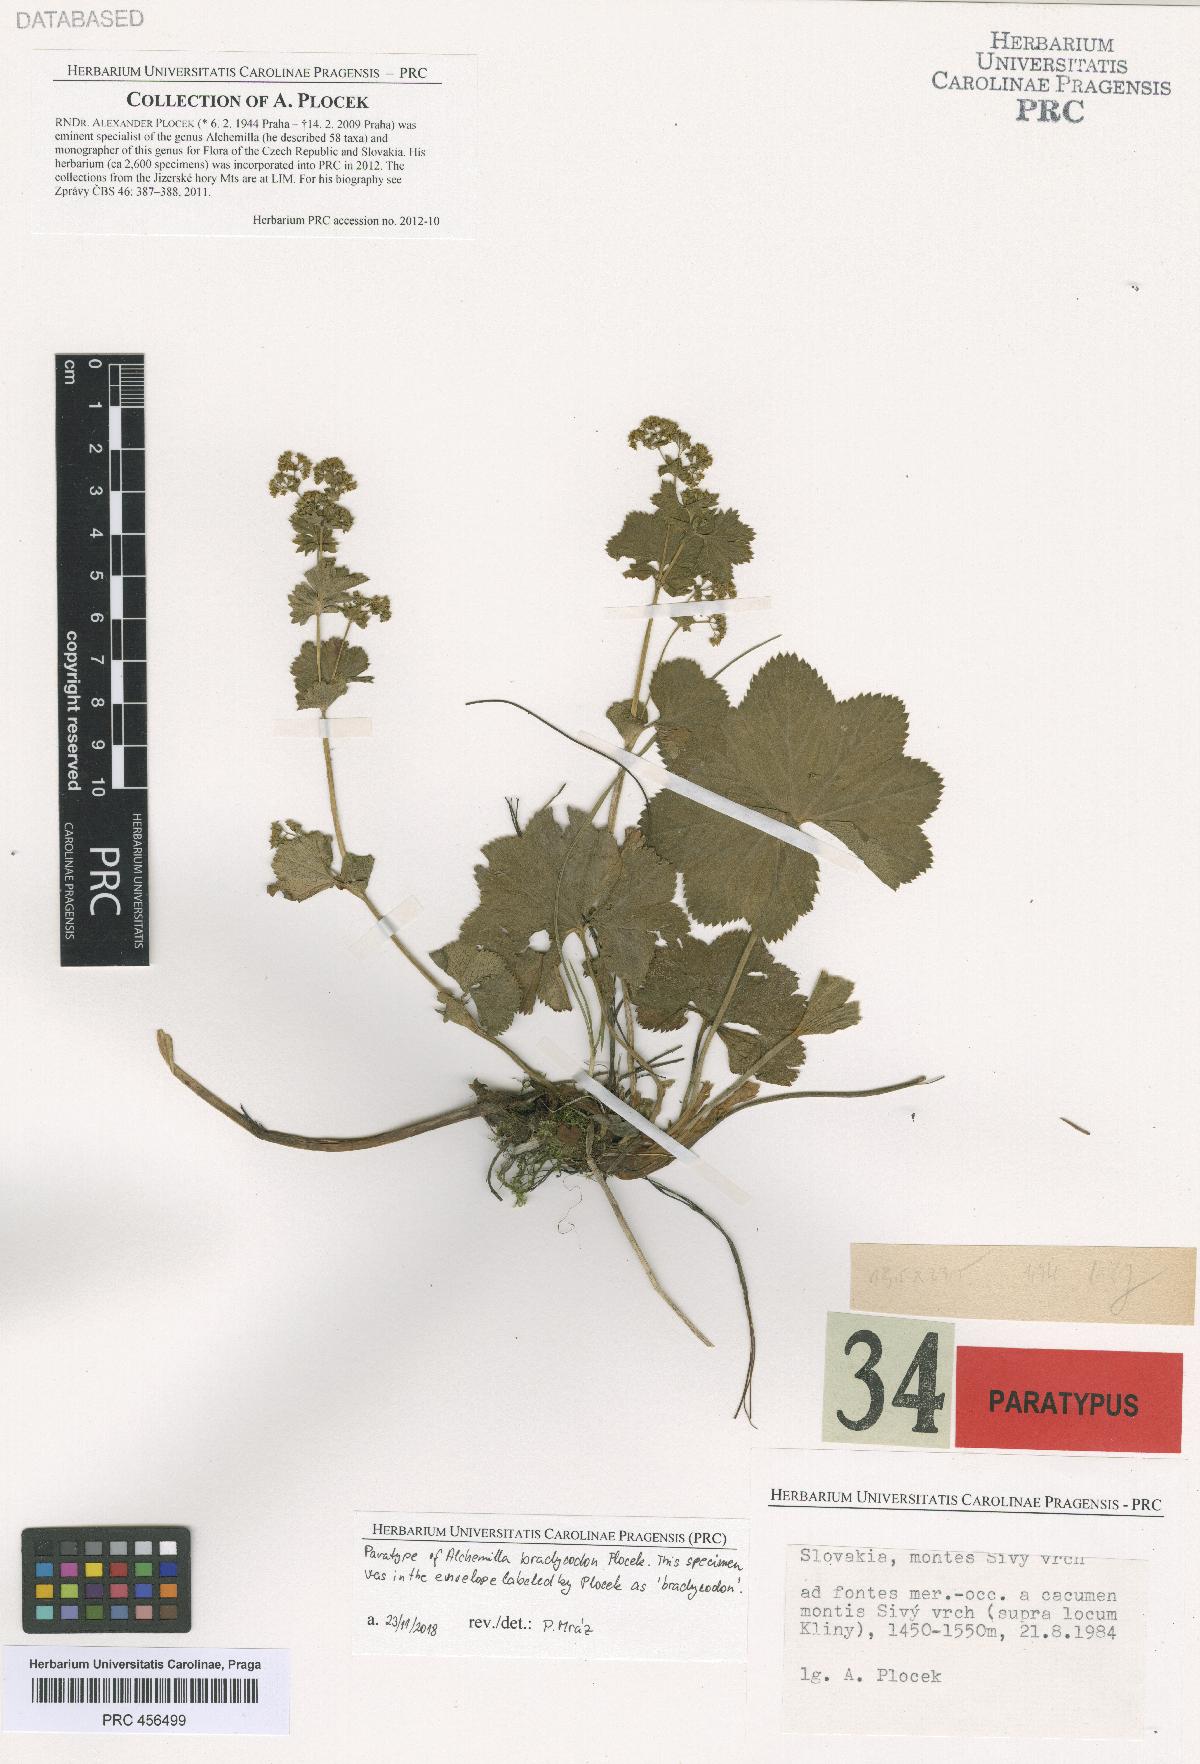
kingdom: Plantae
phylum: Tracheophyta
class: Magnoliopsida
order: Rosales
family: Rosaceae
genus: Alchemilla
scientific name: Alchemilla brachycodon
